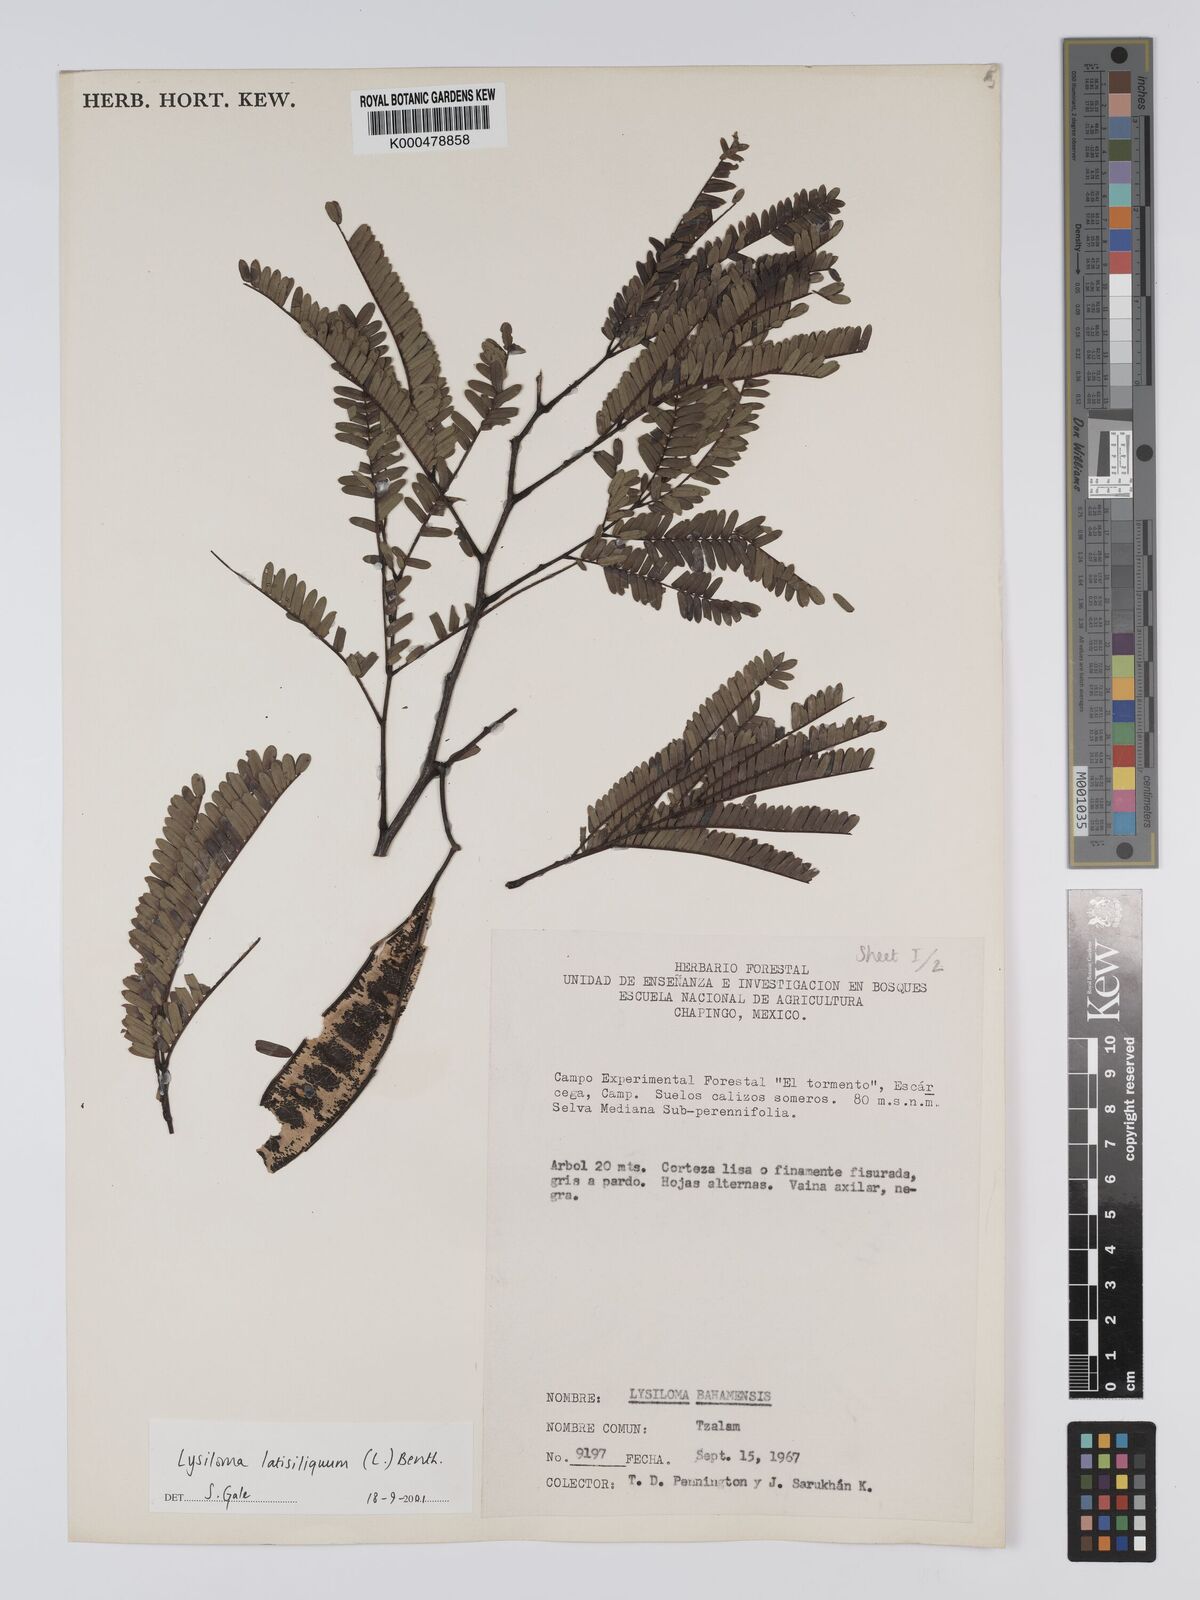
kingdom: Plantae
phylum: Tracheophyta
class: Magnoliopsida
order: Fabales
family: Fabaceae
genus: Lysiloma
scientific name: Lysiloma latisiliquum
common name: Wild tamarind
